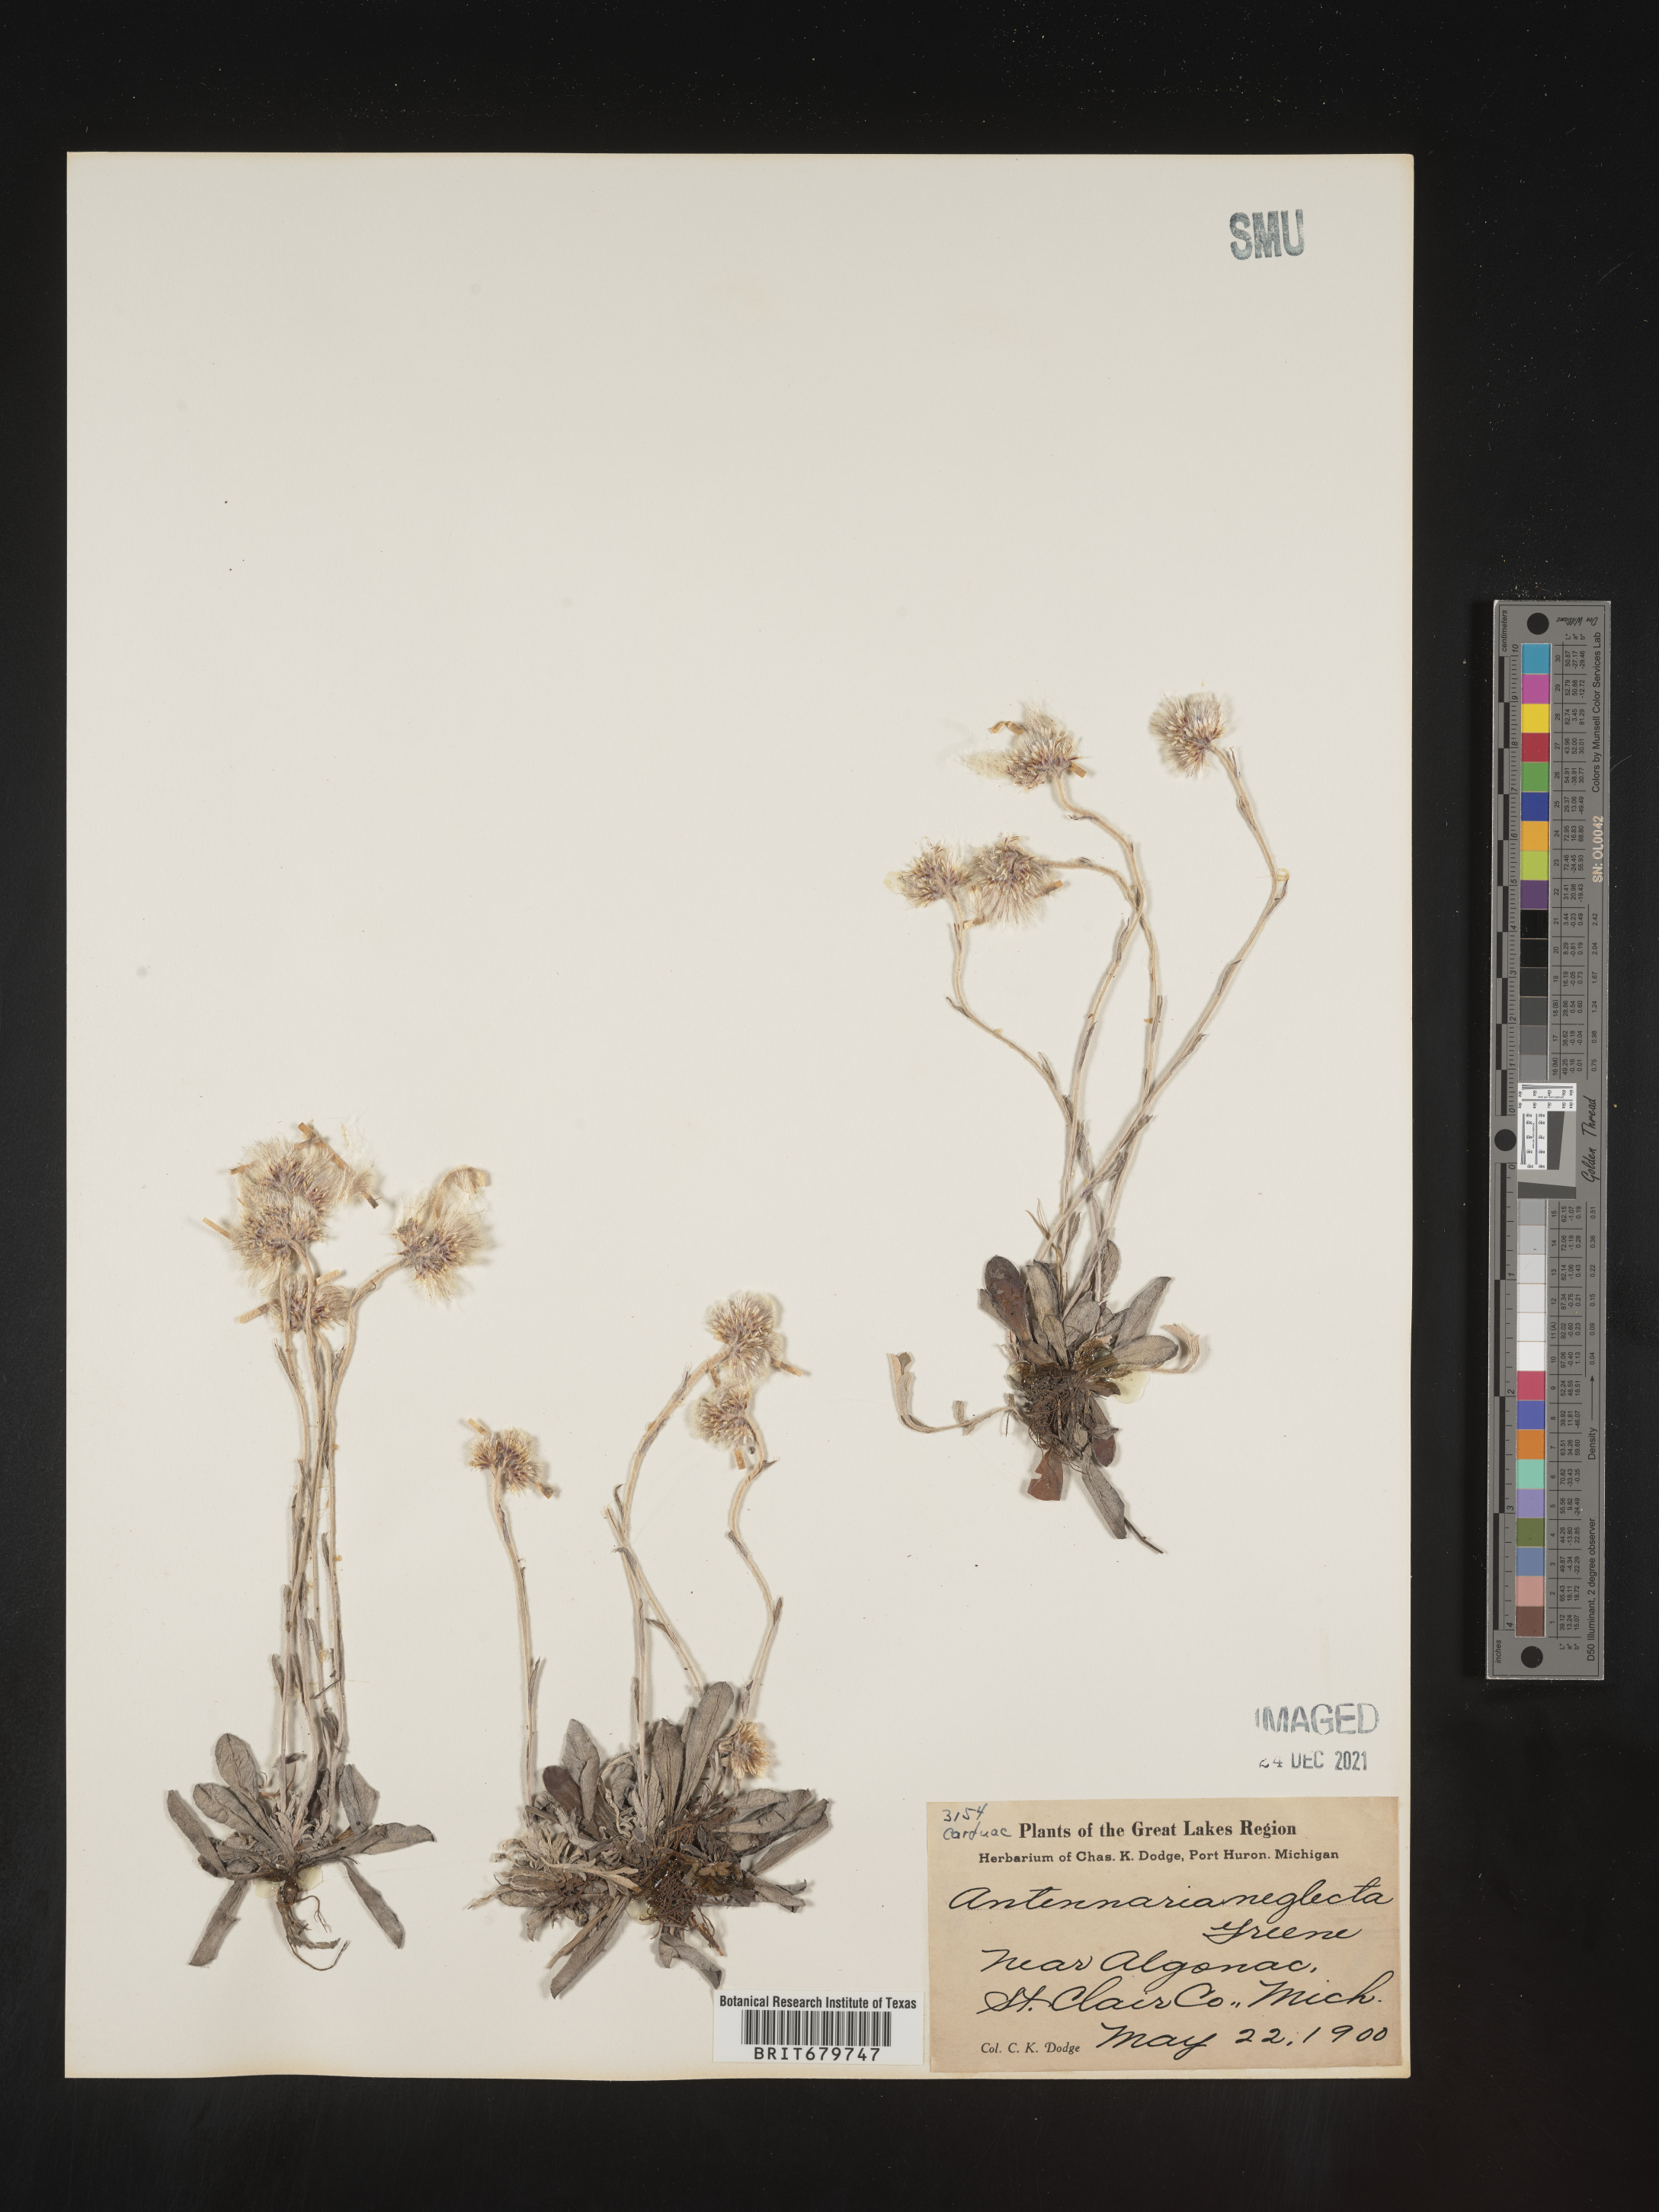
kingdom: Plantae
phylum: Tracheophyta
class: Magnoliopsida
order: Asterales
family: Asteraceae
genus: Antennaria
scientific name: Antennaria neglecta
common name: Field pussytoes
